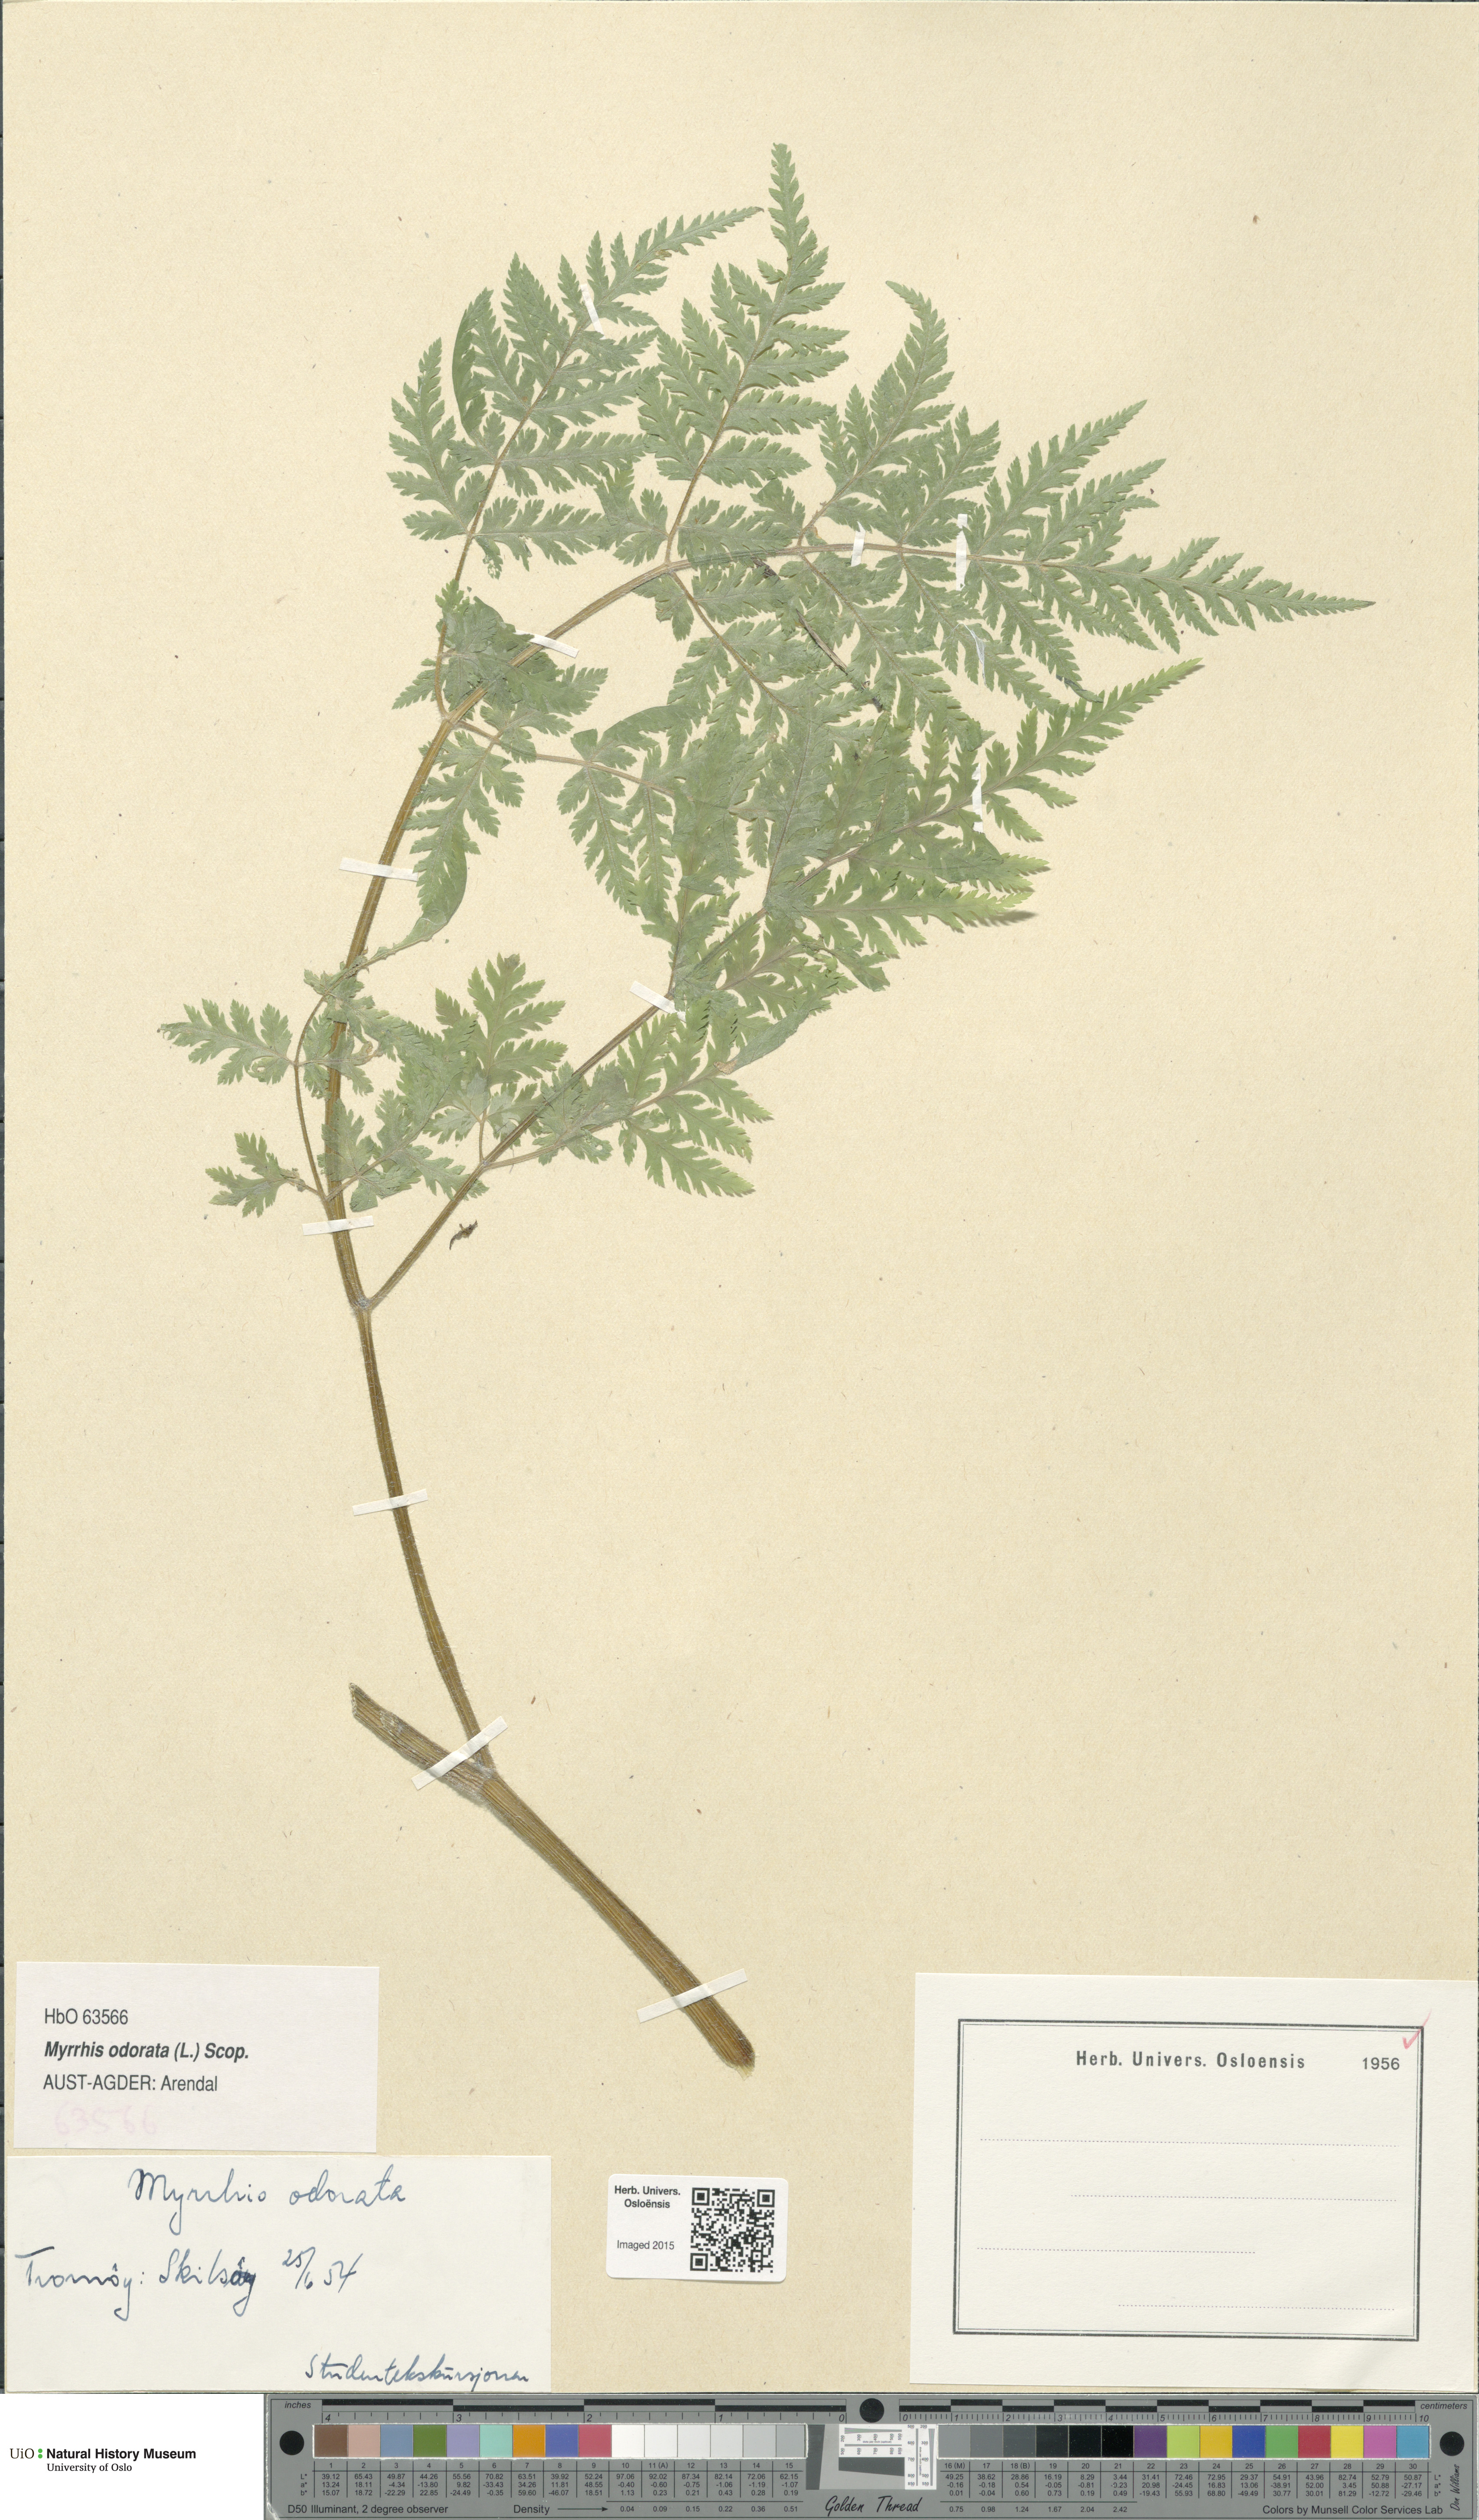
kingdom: Plantae
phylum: Tracheophyta
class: Magnoliopsida
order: Apiales
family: Apiaceae
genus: Myrrhis
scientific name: Myrrhis odorata
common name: Sweet cicely
